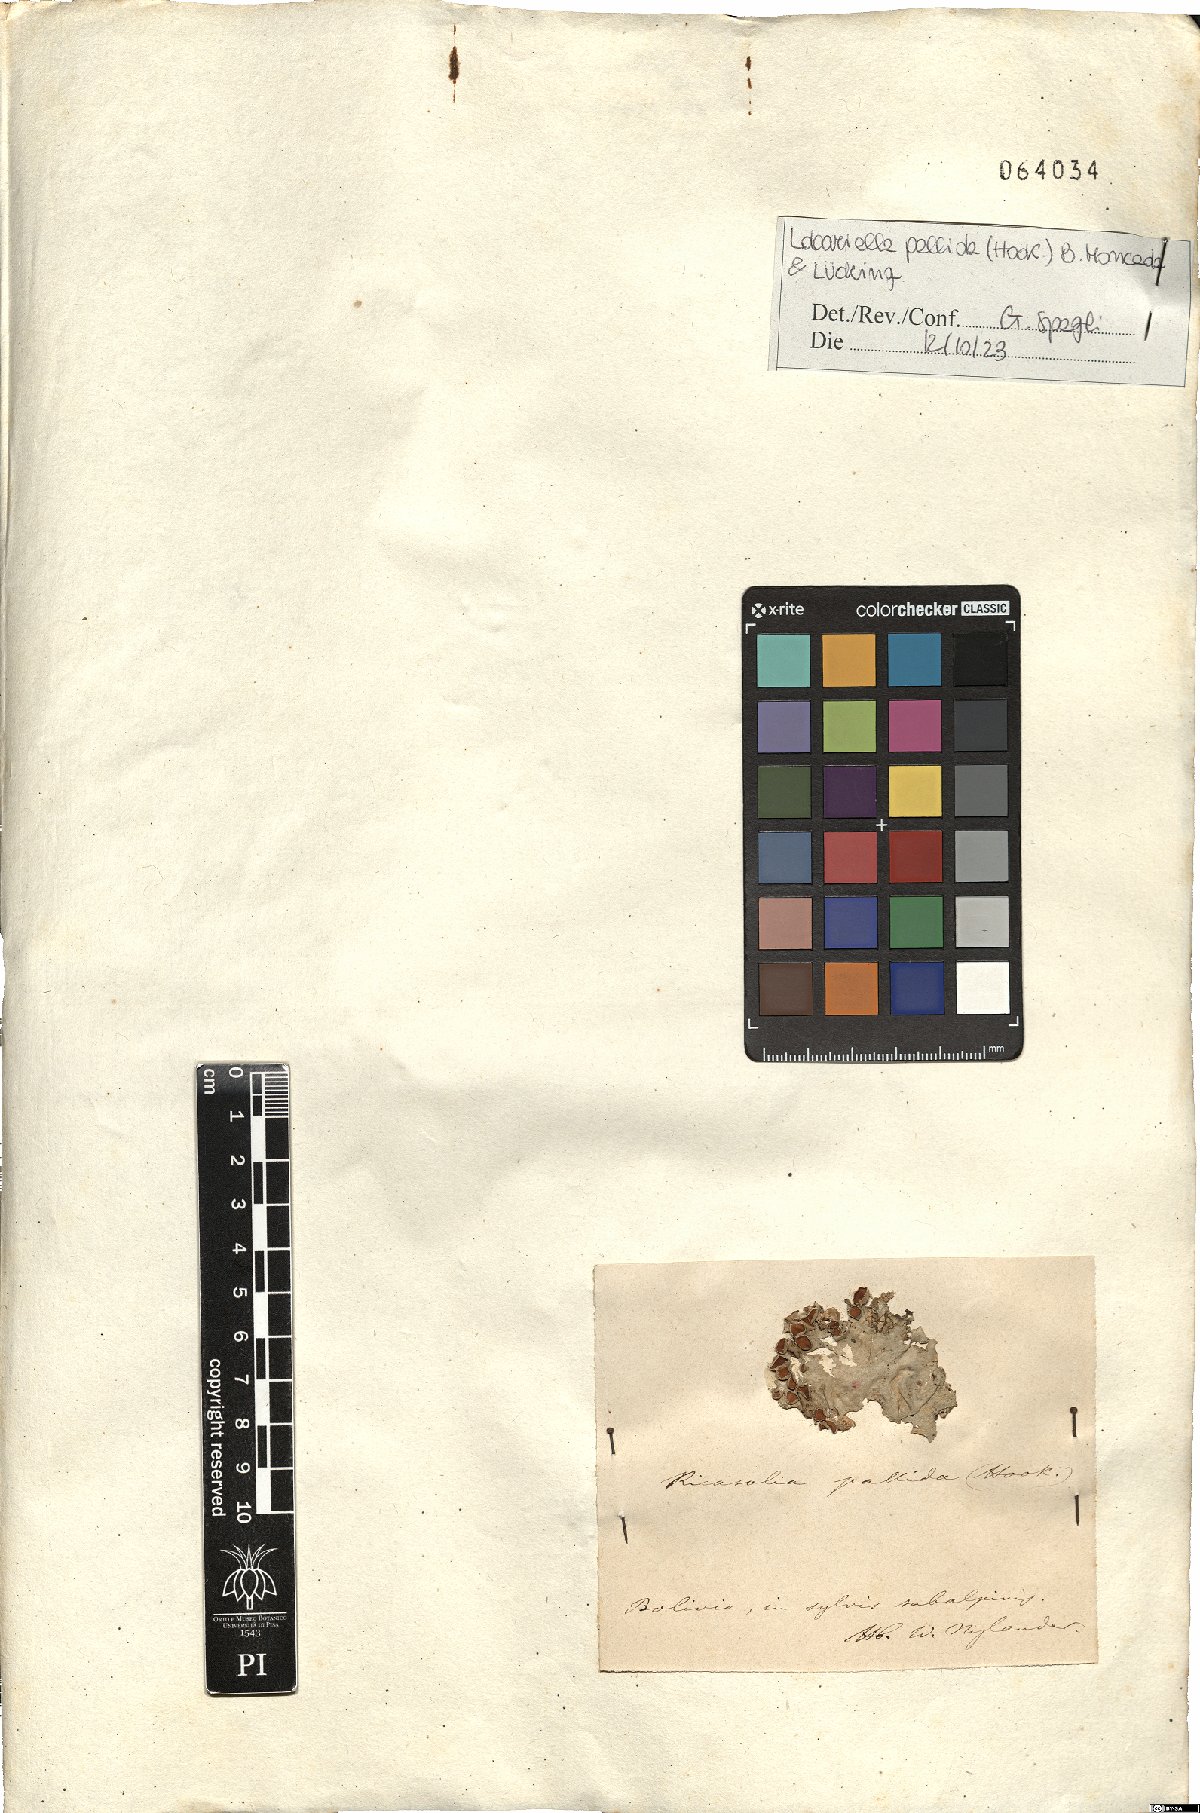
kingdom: Fungi
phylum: Ascomycota
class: Lecanoromycetes
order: Peltigerales
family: Lobariaceae
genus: Lobariella
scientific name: Lobariella pallida
